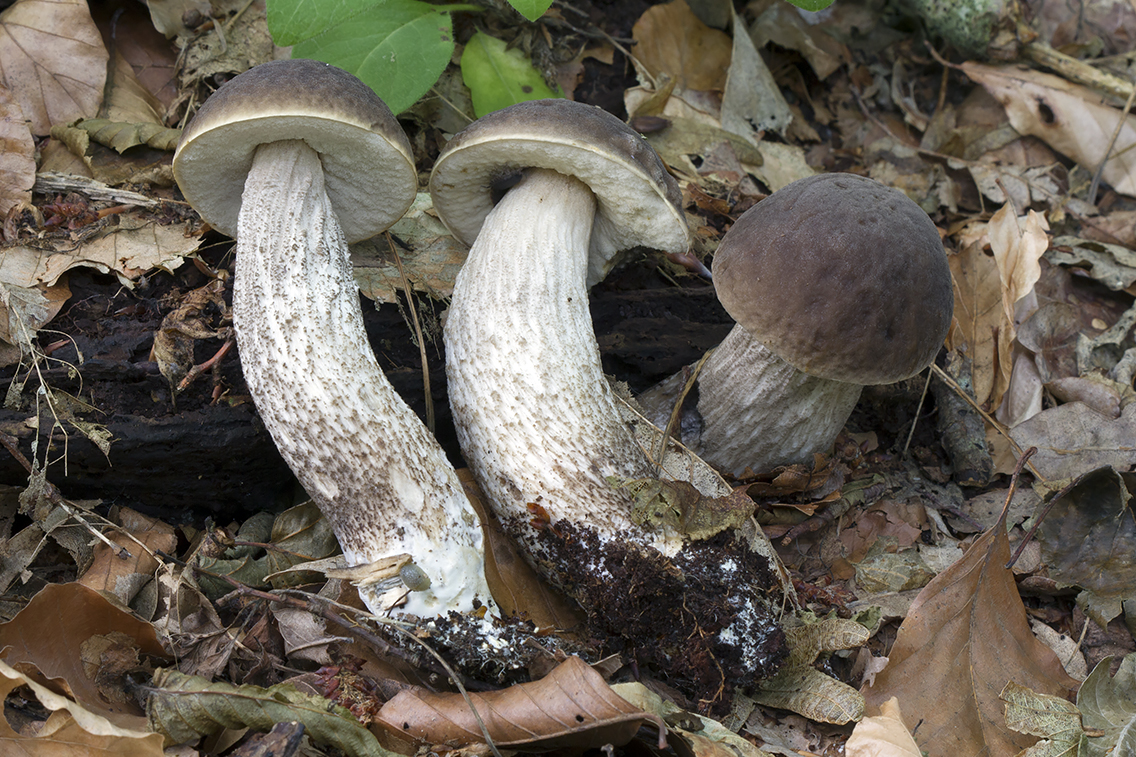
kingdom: Fungi
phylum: Basidiomycota
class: Agaricomycetes
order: Boletales
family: Boletaceae
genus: Leccinellum
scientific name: Leccinellum pseudoscabrum
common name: avnbøg-skælrørhat
